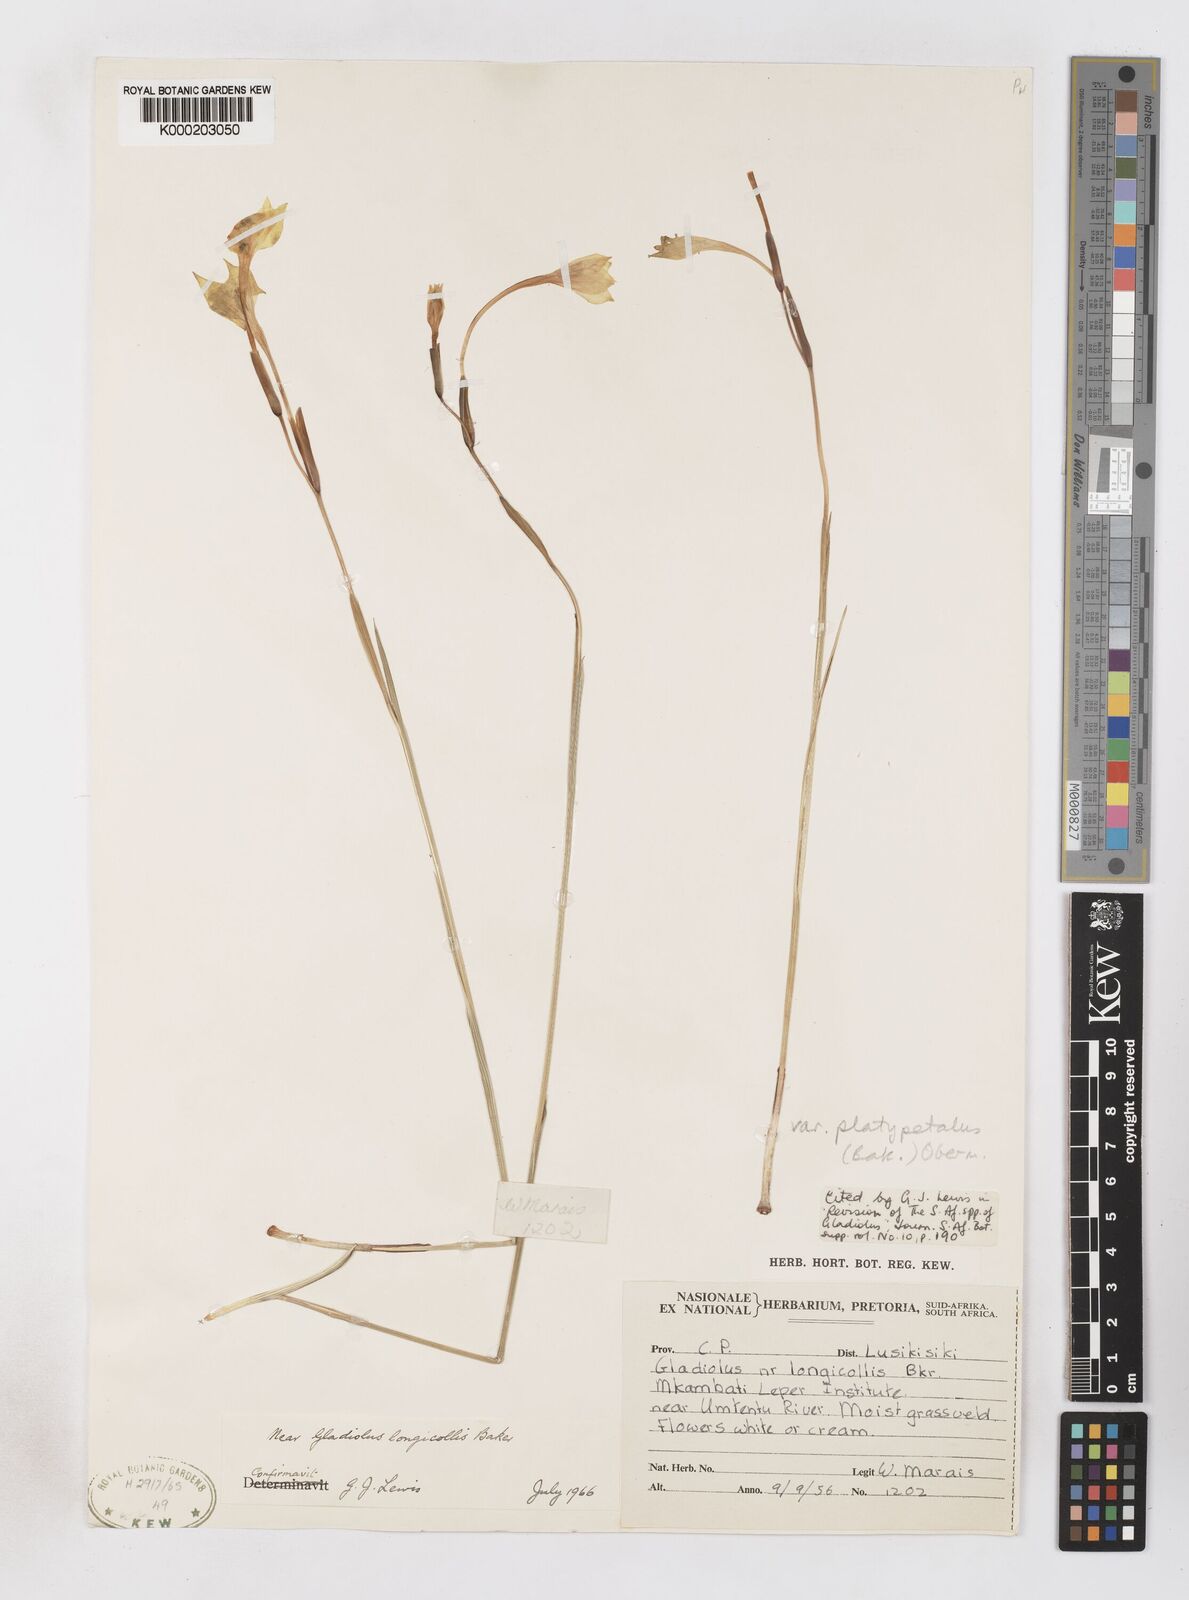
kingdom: Plantae
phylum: Tracheophyta
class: Liliopsida
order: Asparagales
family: Iridaceae
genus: Gladiolus
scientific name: Gladiolus longicollis
